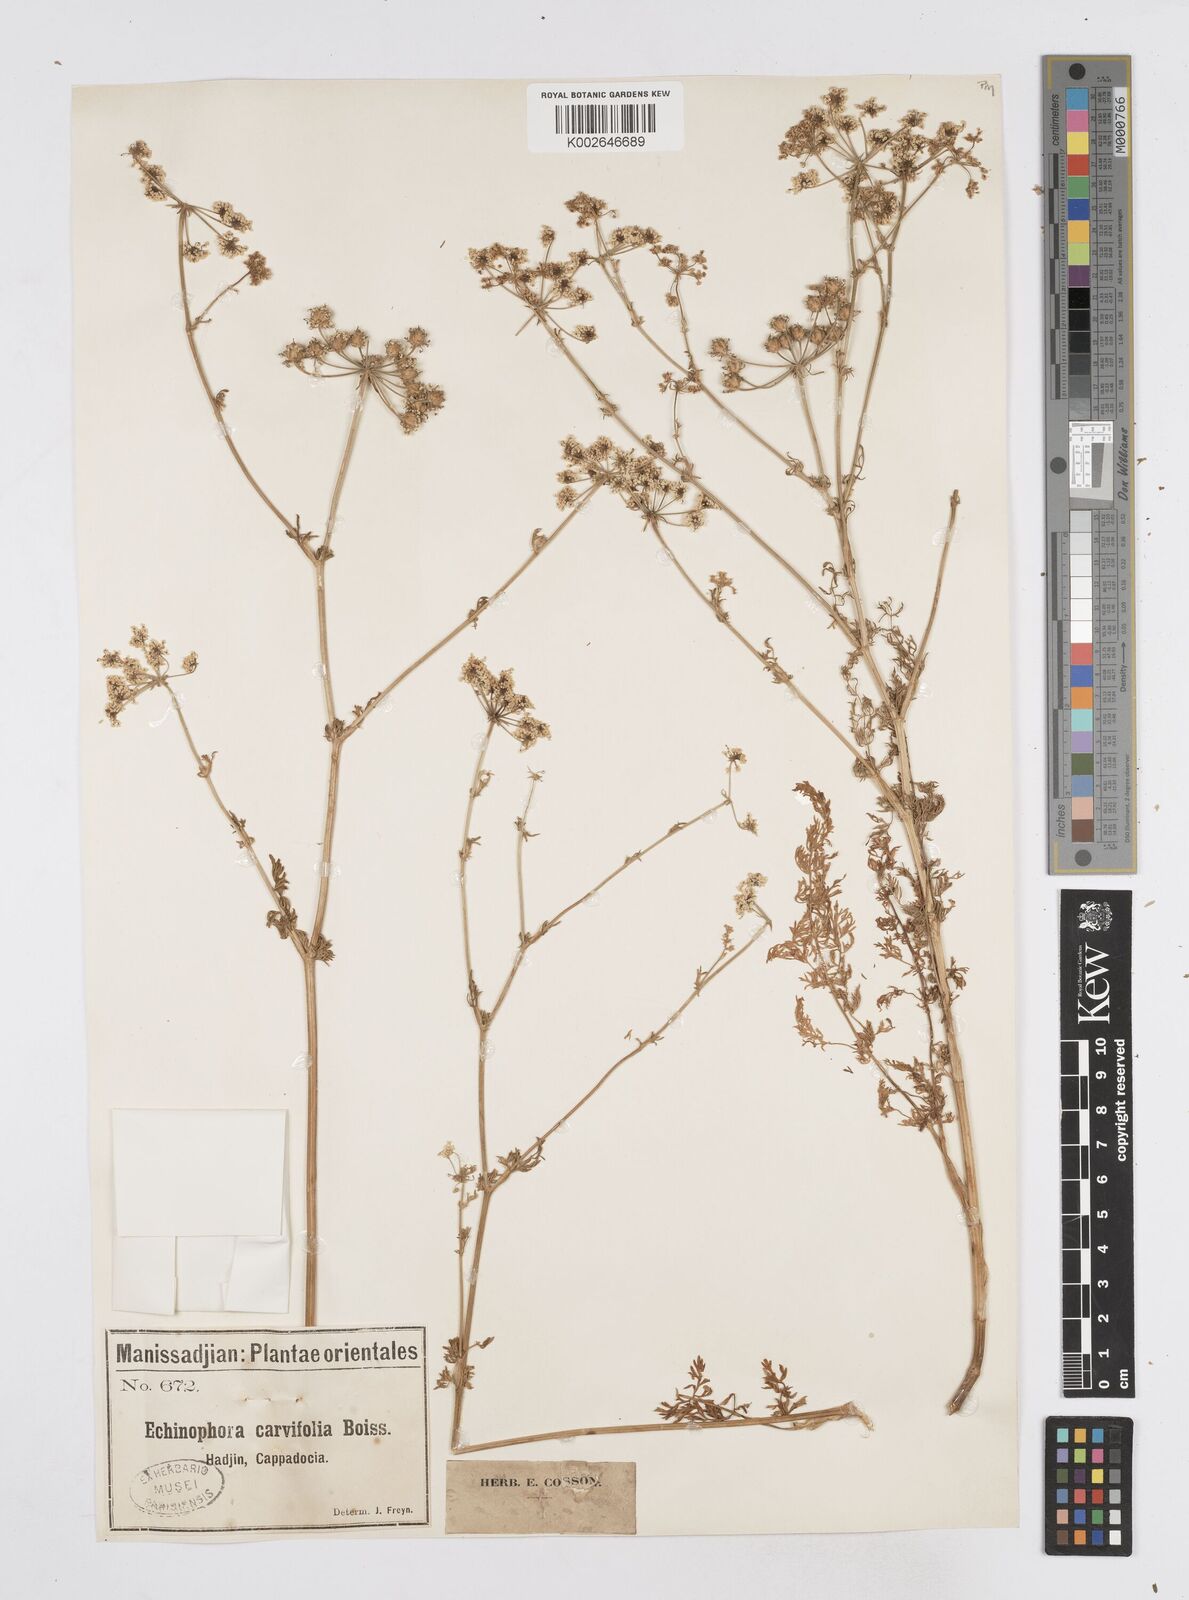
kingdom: Plantae
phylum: Tracheophyta
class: Magnoliopsida
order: Apiales
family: Apiaceae
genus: Thecocarpus
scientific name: Thecocarpus carvifolius
